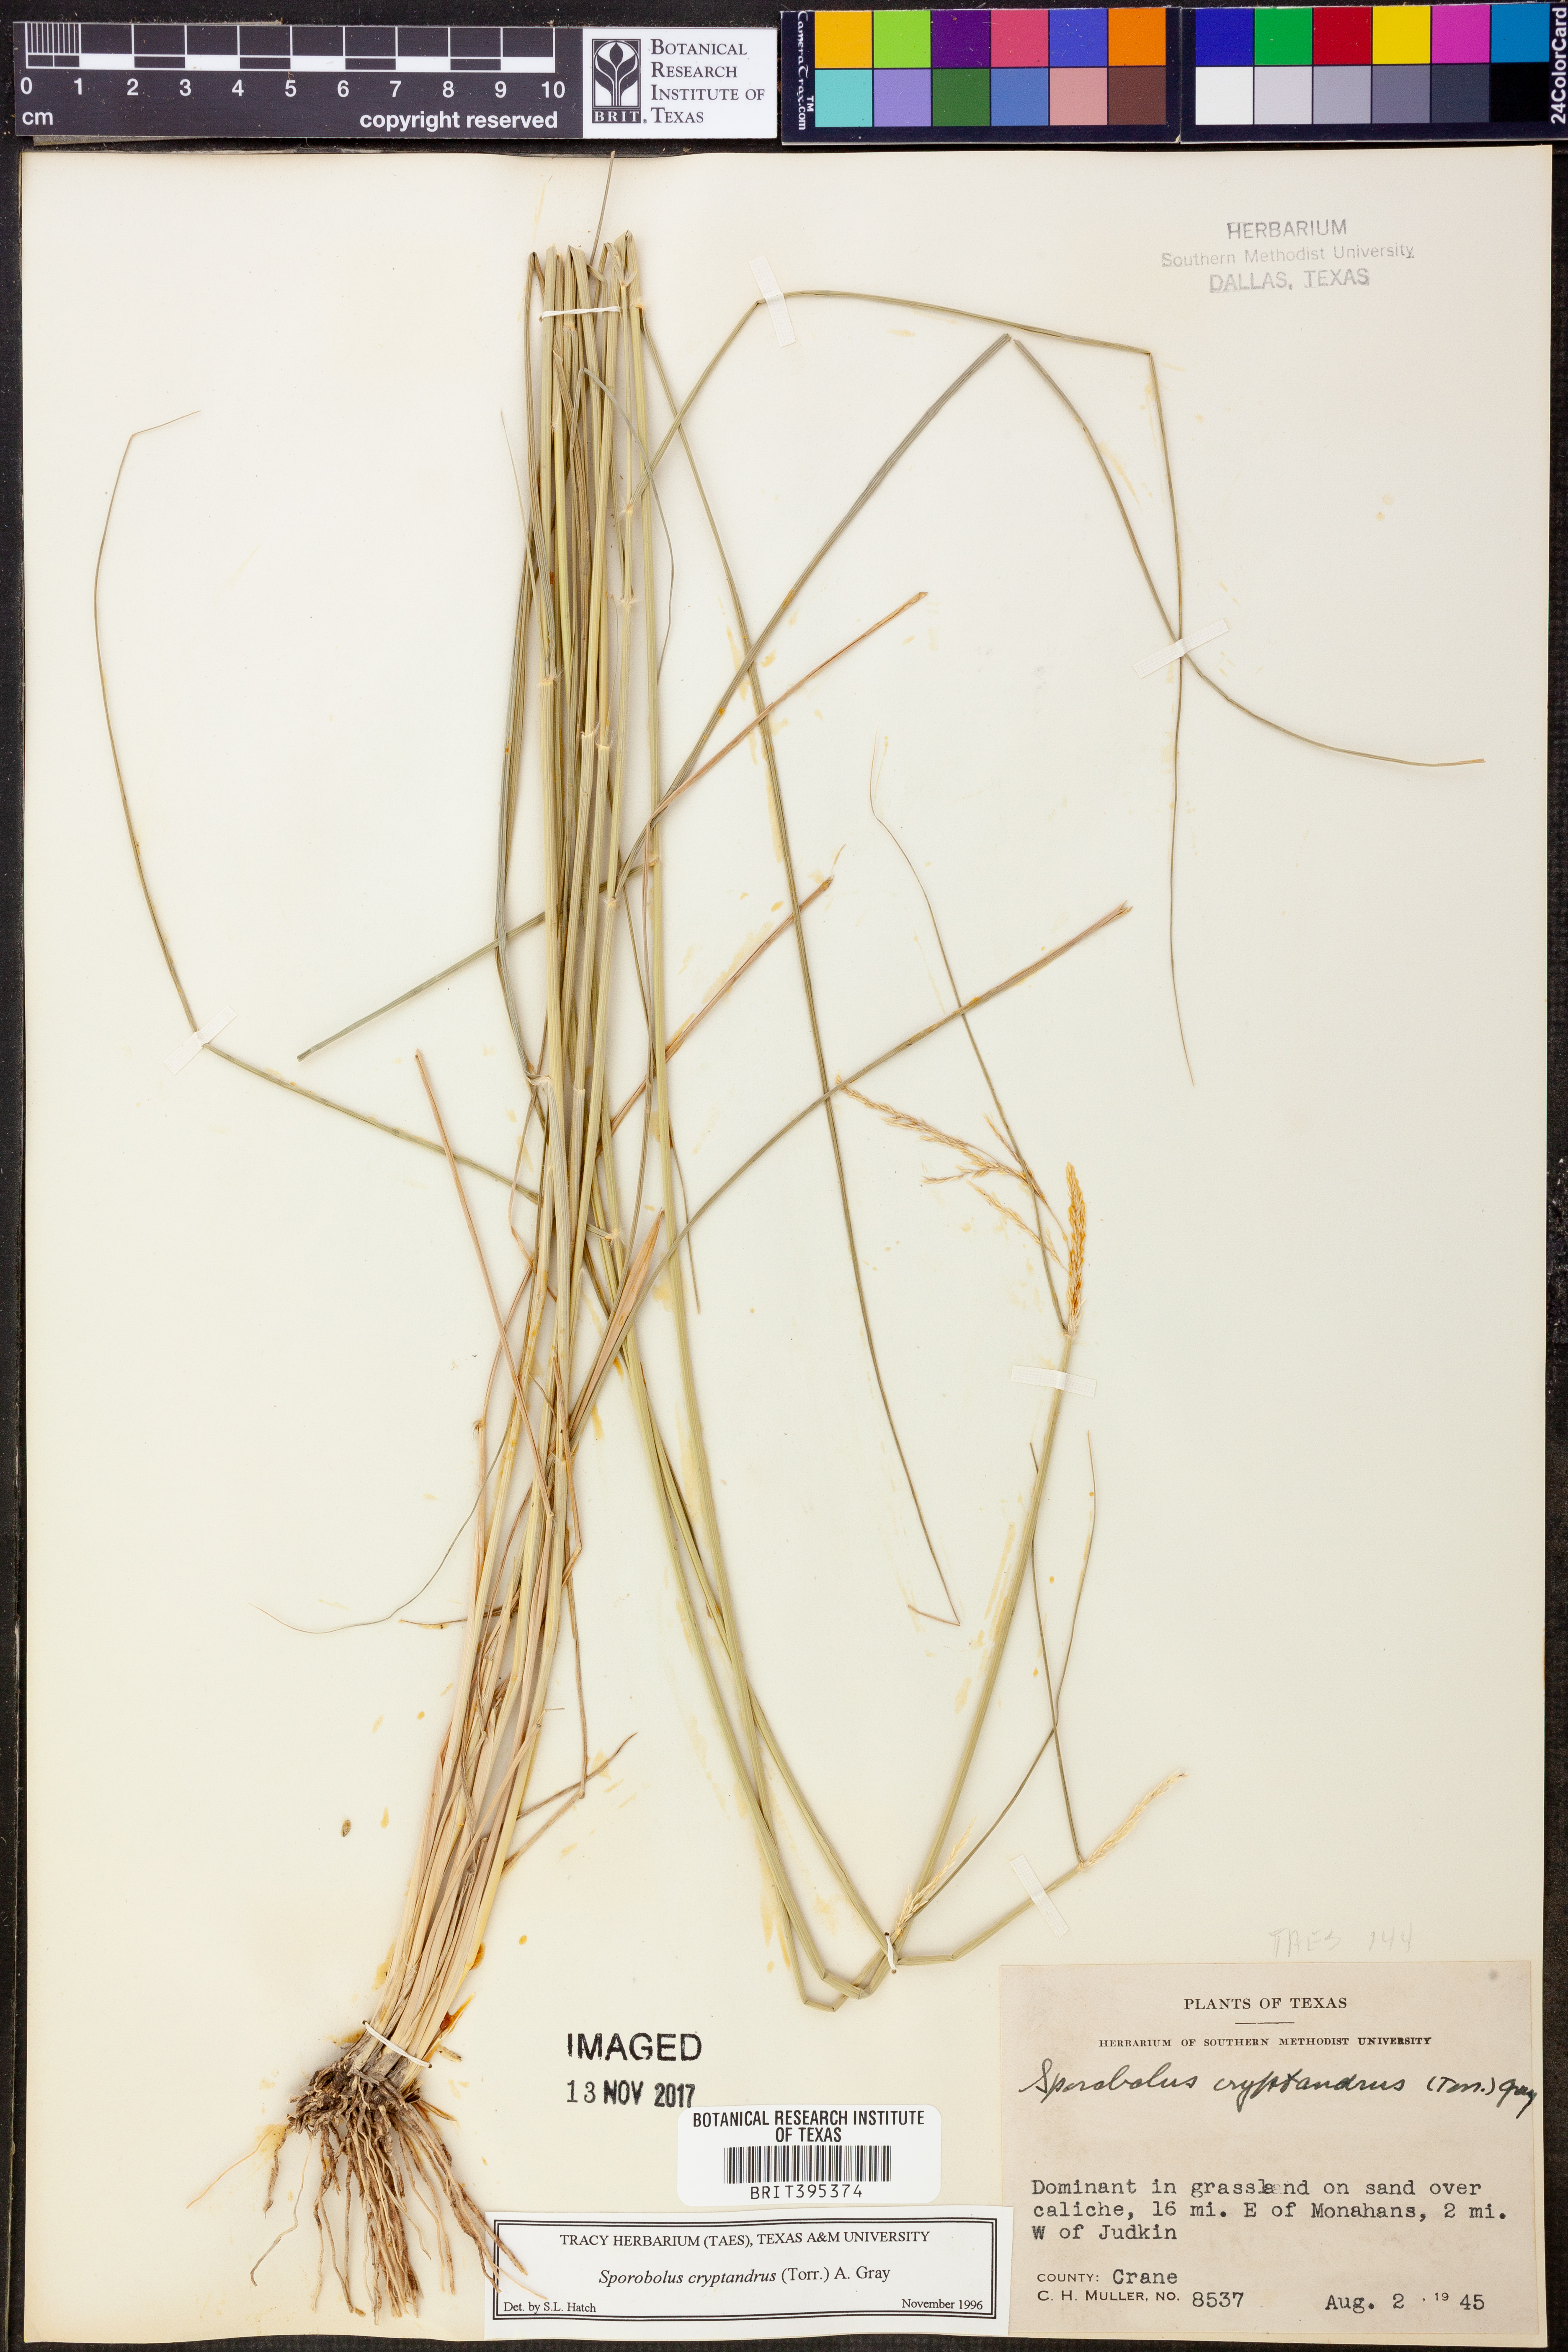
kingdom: Plantae
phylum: Tracheophyta
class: Liliopsida
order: Poales
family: Poaceae
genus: Sporobolus
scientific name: Sporobolus cryptandrus
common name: Sand dropseed
